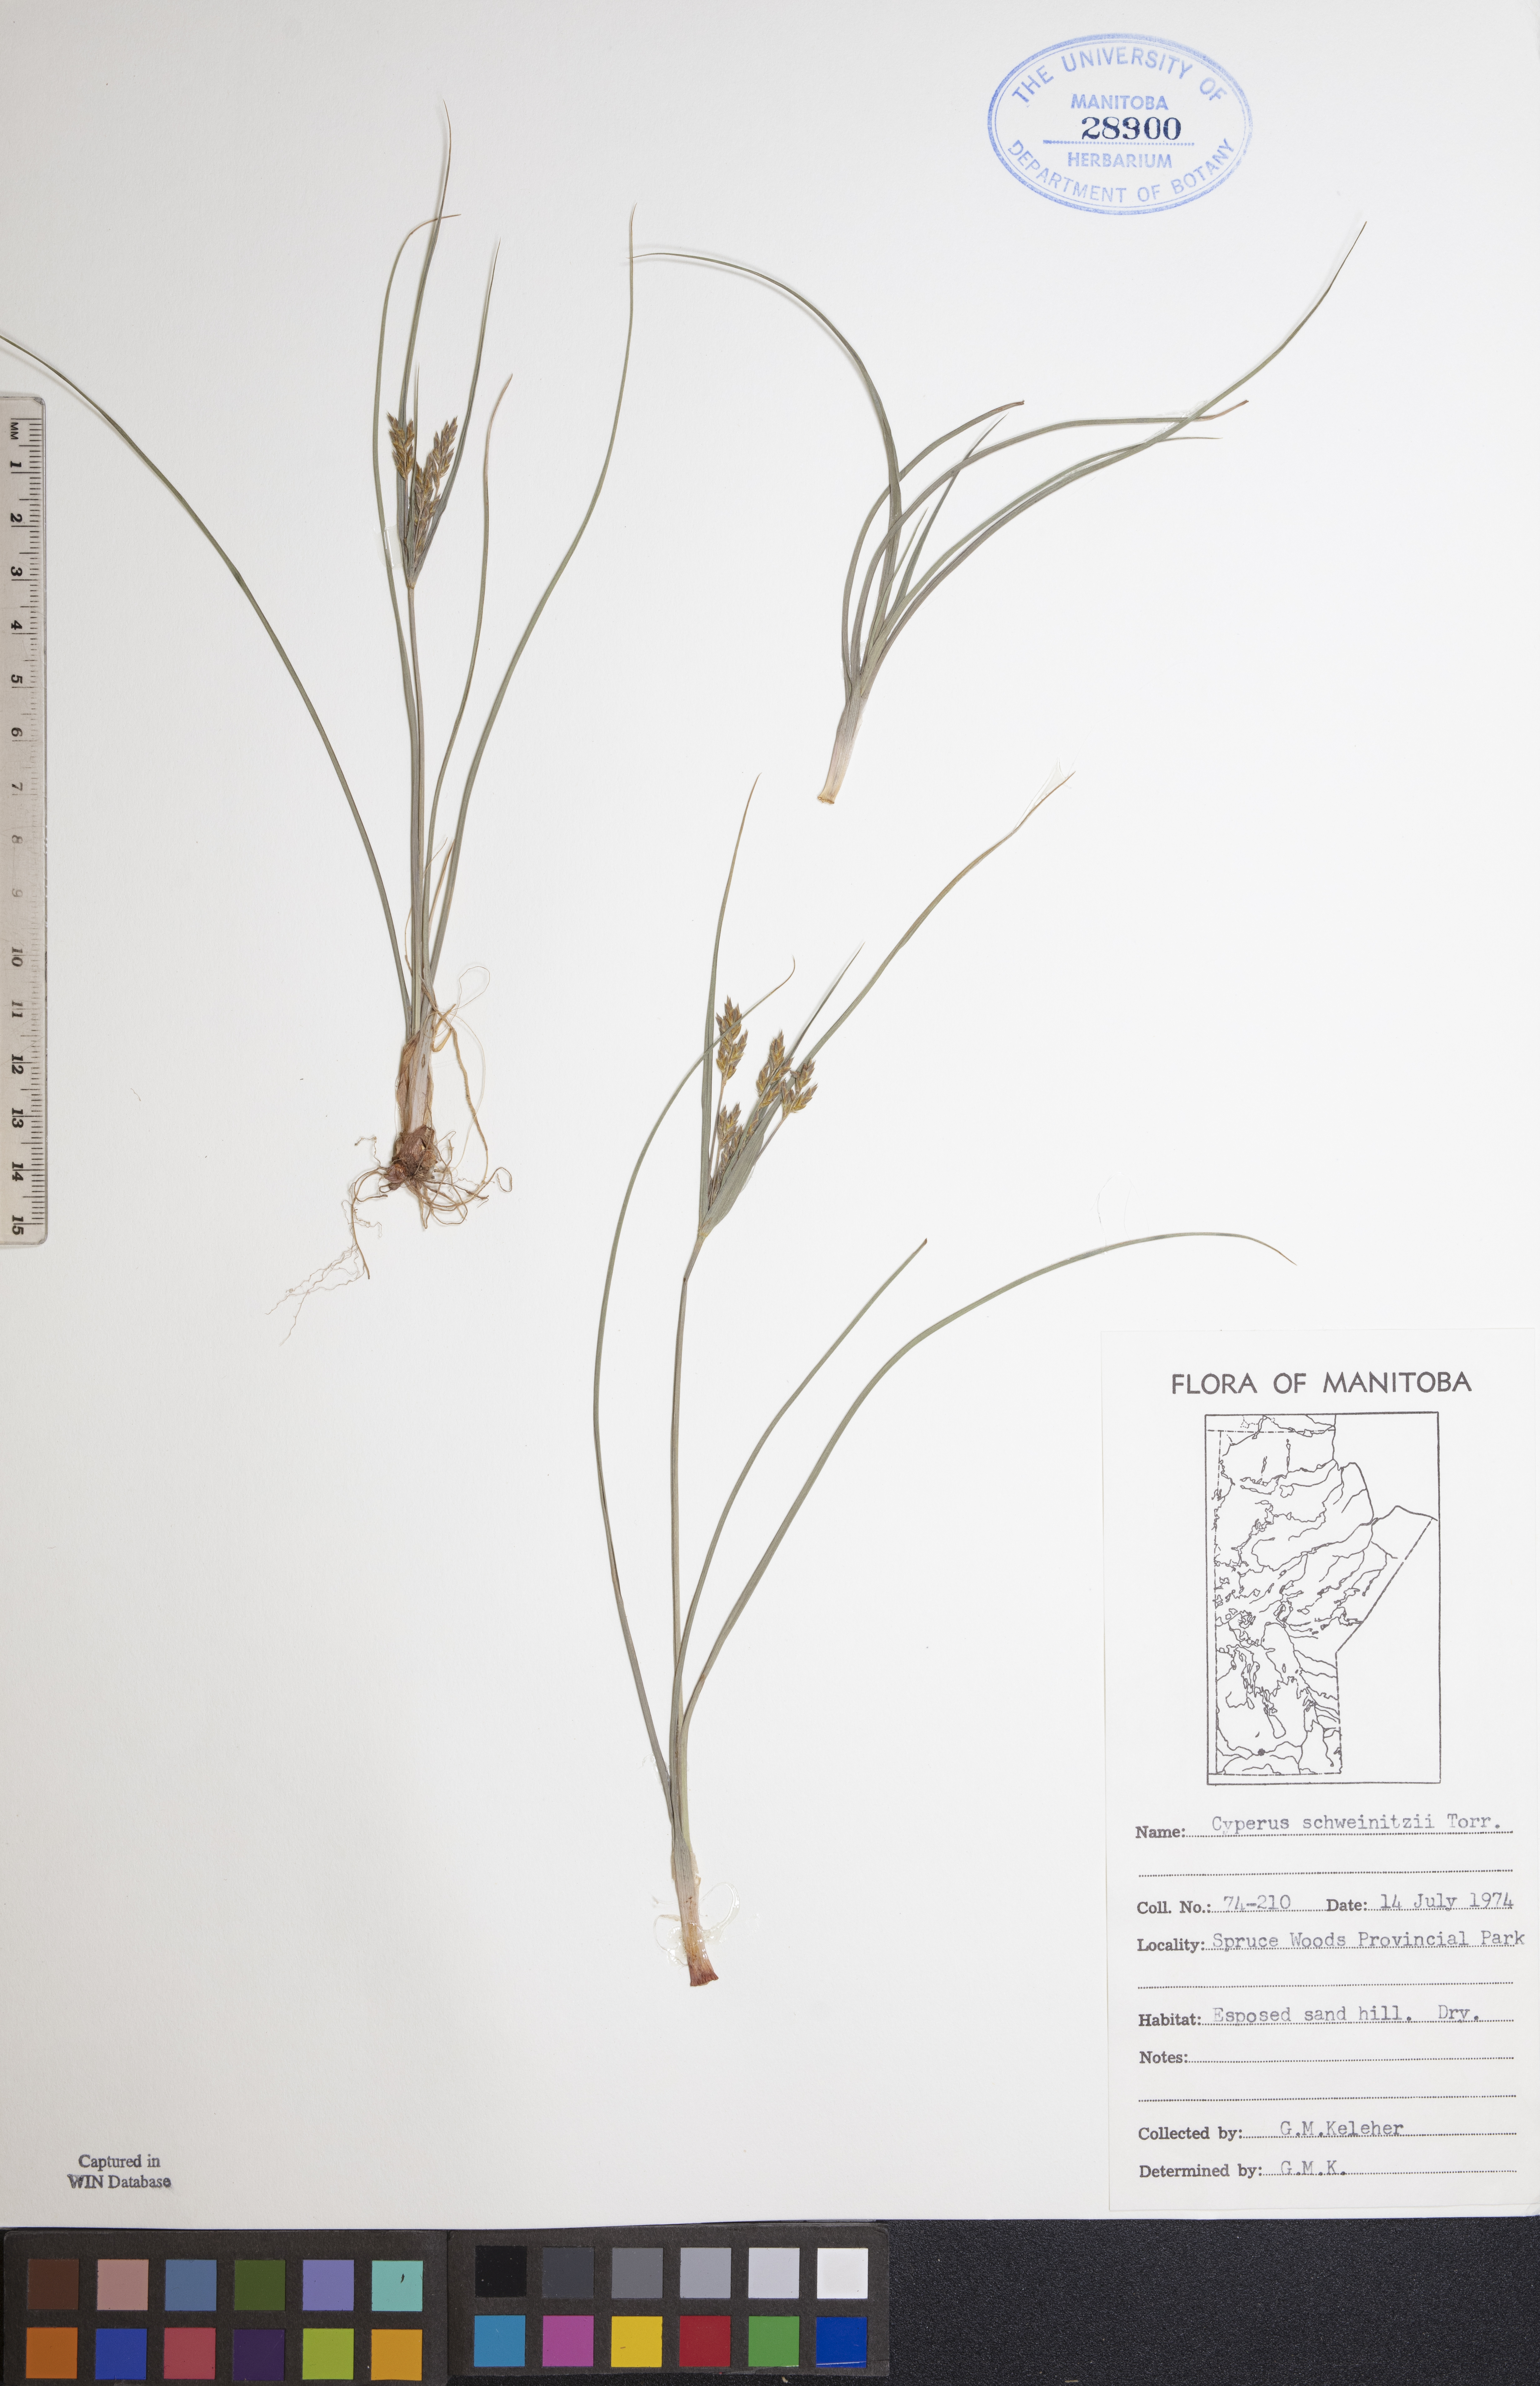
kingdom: Plantae
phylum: Tracheophyta
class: Liliopsida
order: Poales
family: Cyperaceae
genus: Cyperus
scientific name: Cyperus schweinitzii
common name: Schweinitz's cyperus
